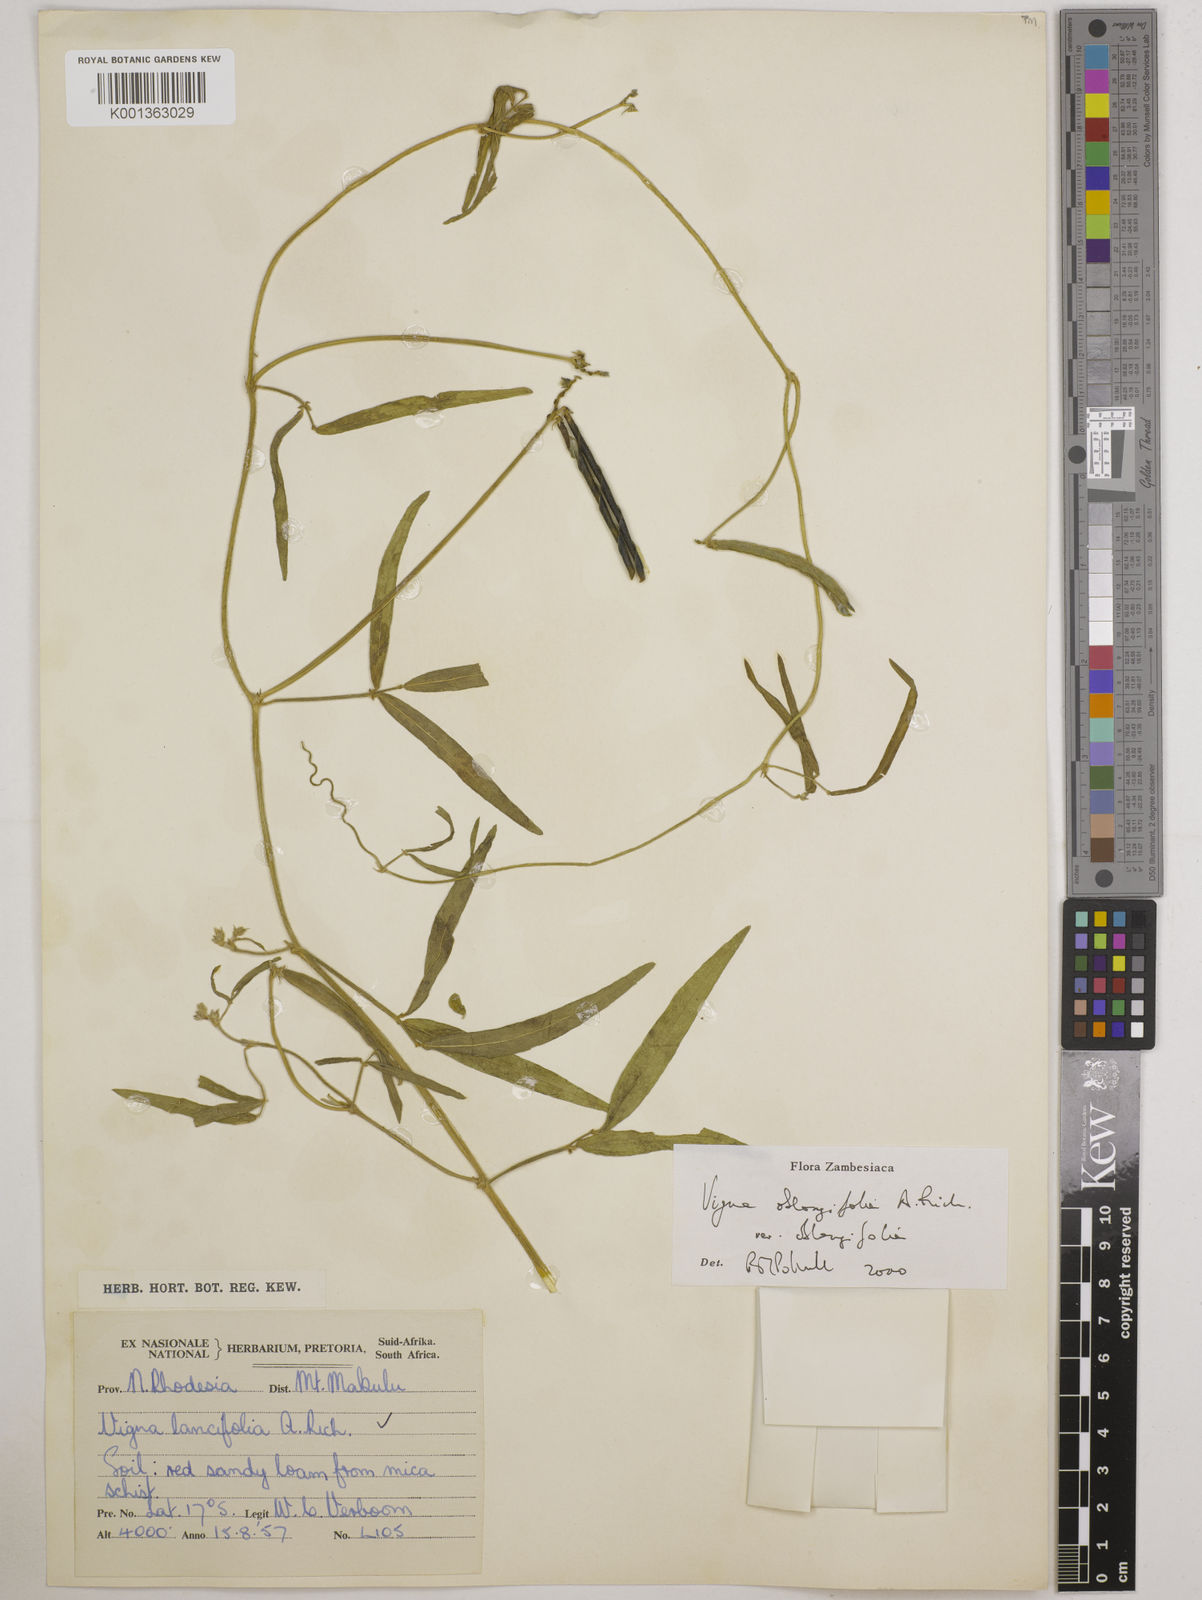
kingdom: Plantae
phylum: Tracheophyta
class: Magnoliopsida
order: Fabales
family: Fabaceae
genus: Vigna
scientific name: Vigna oblongifolia
